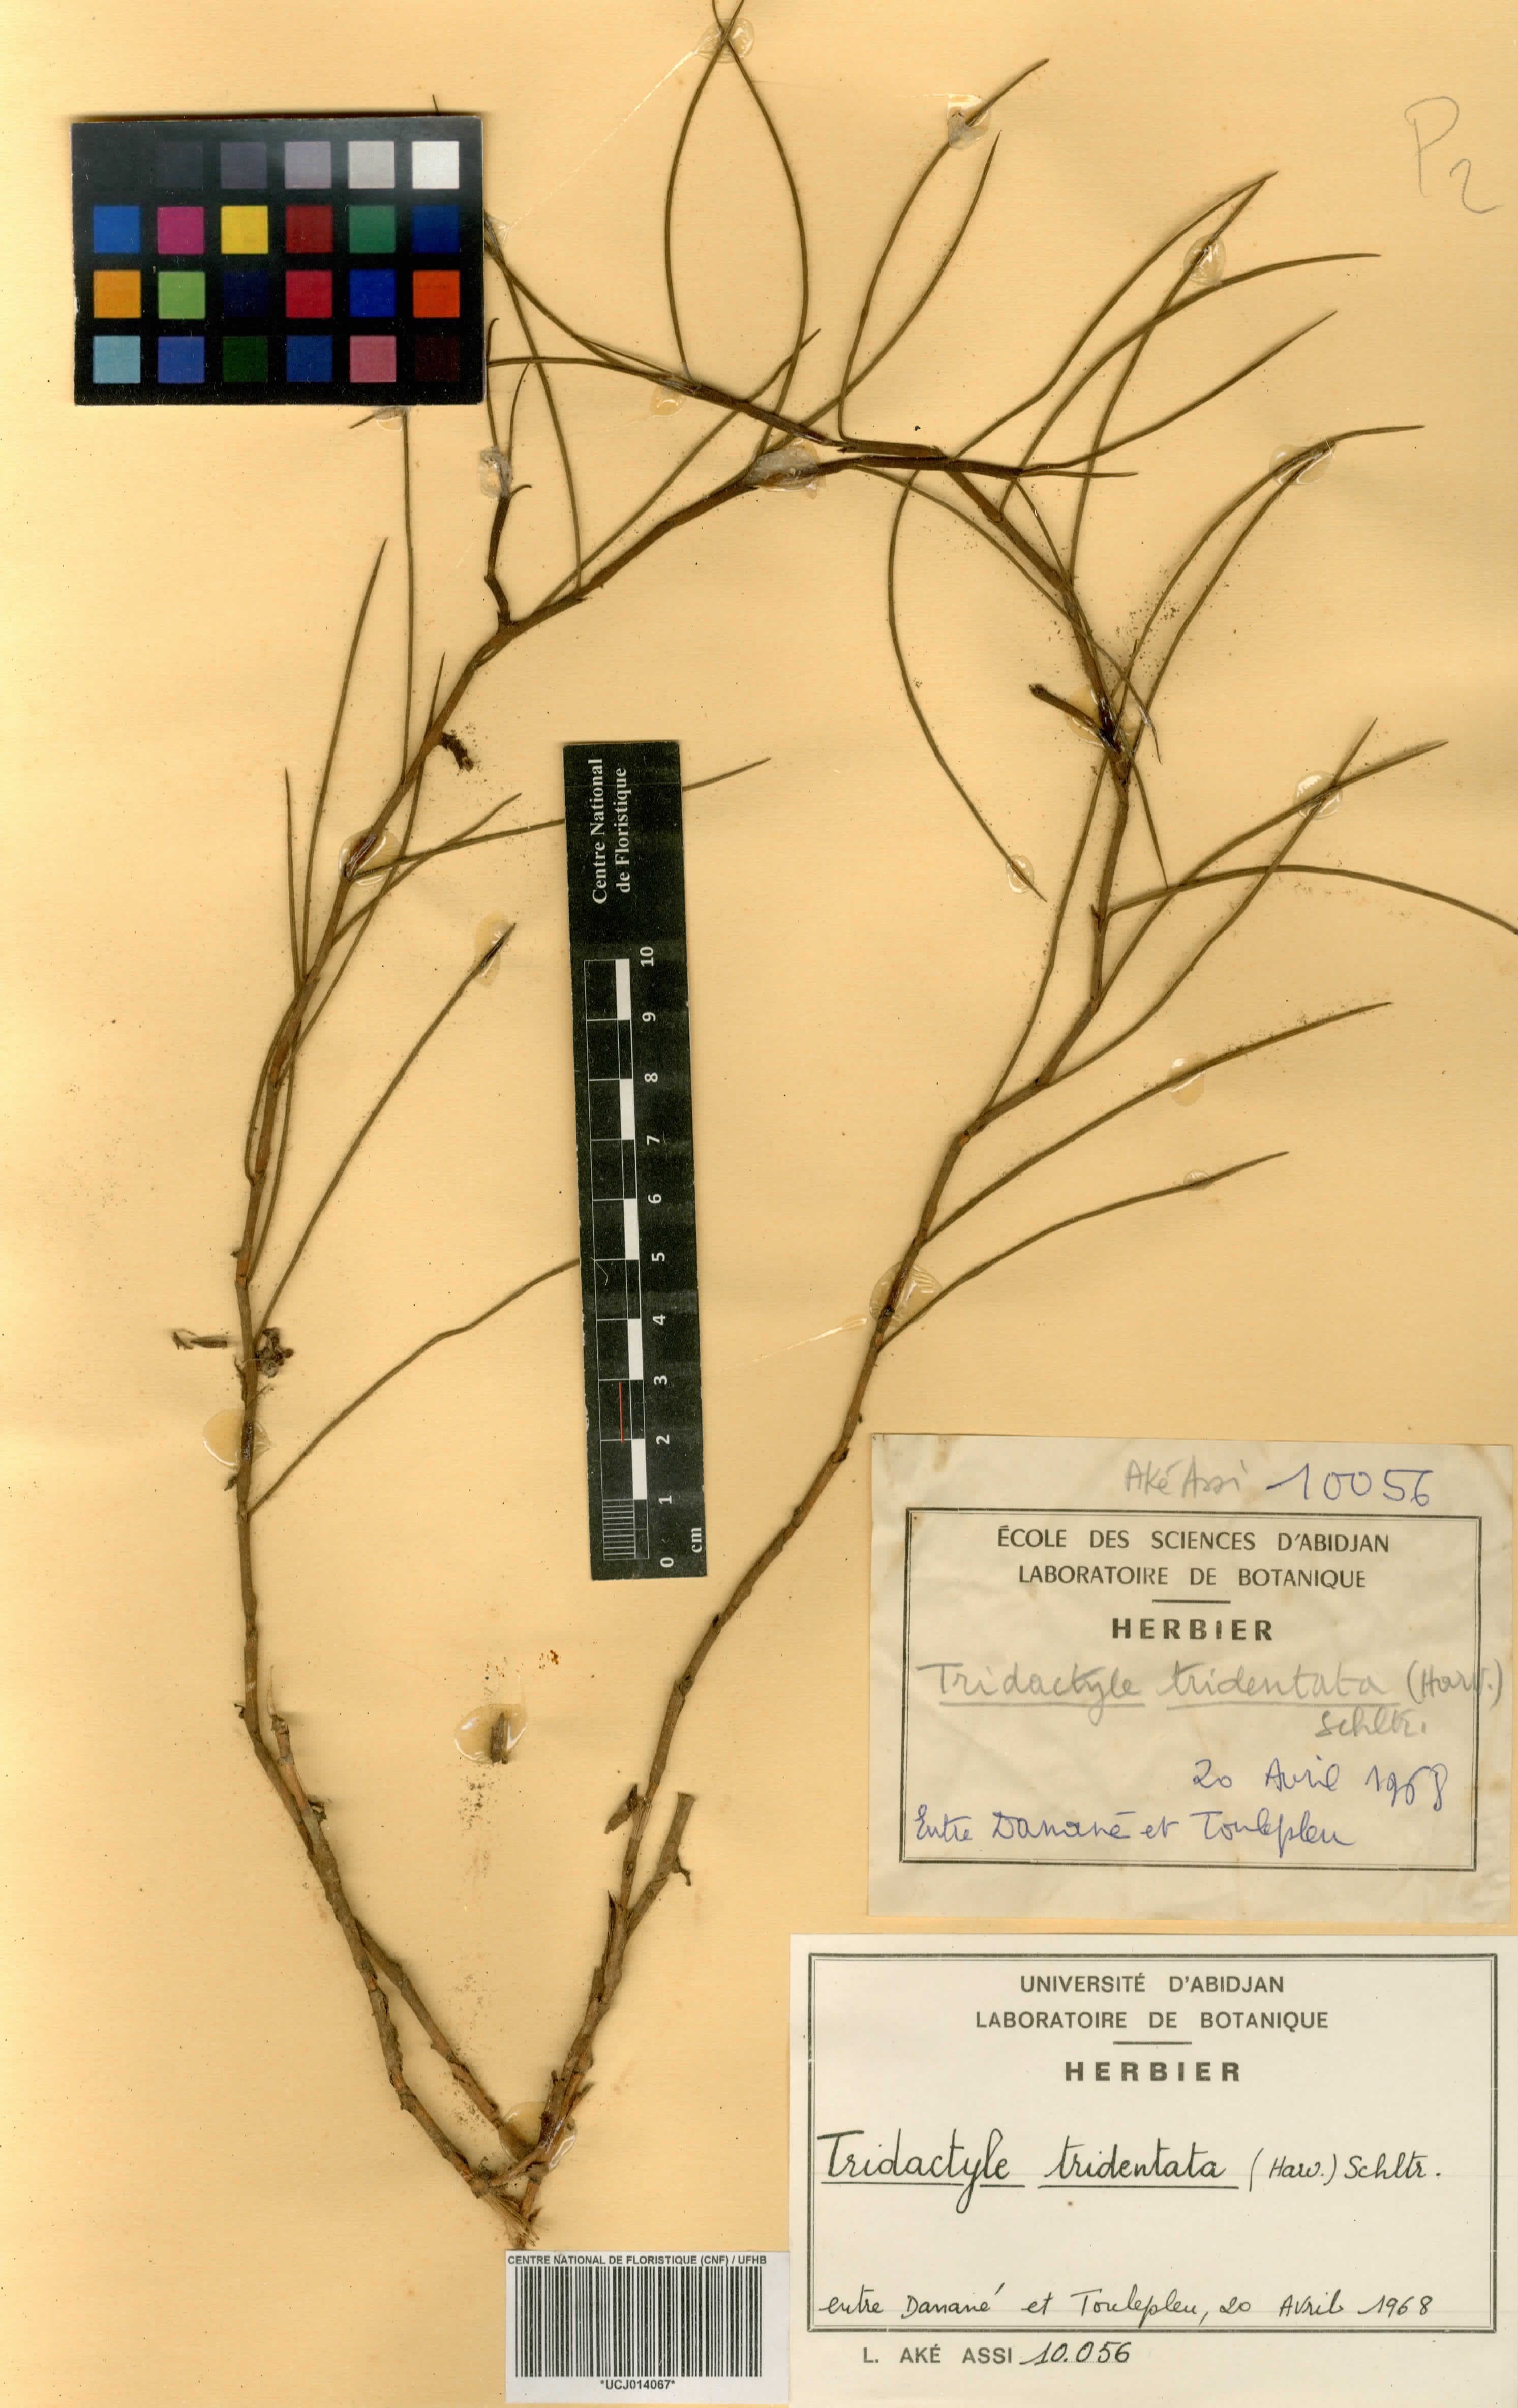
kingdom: Plantae
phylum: Tracheophyta
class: Liliopsida
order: Asparagales
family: Orchidaceae
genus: Tridactyle
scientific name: Tridactyle tridentata
